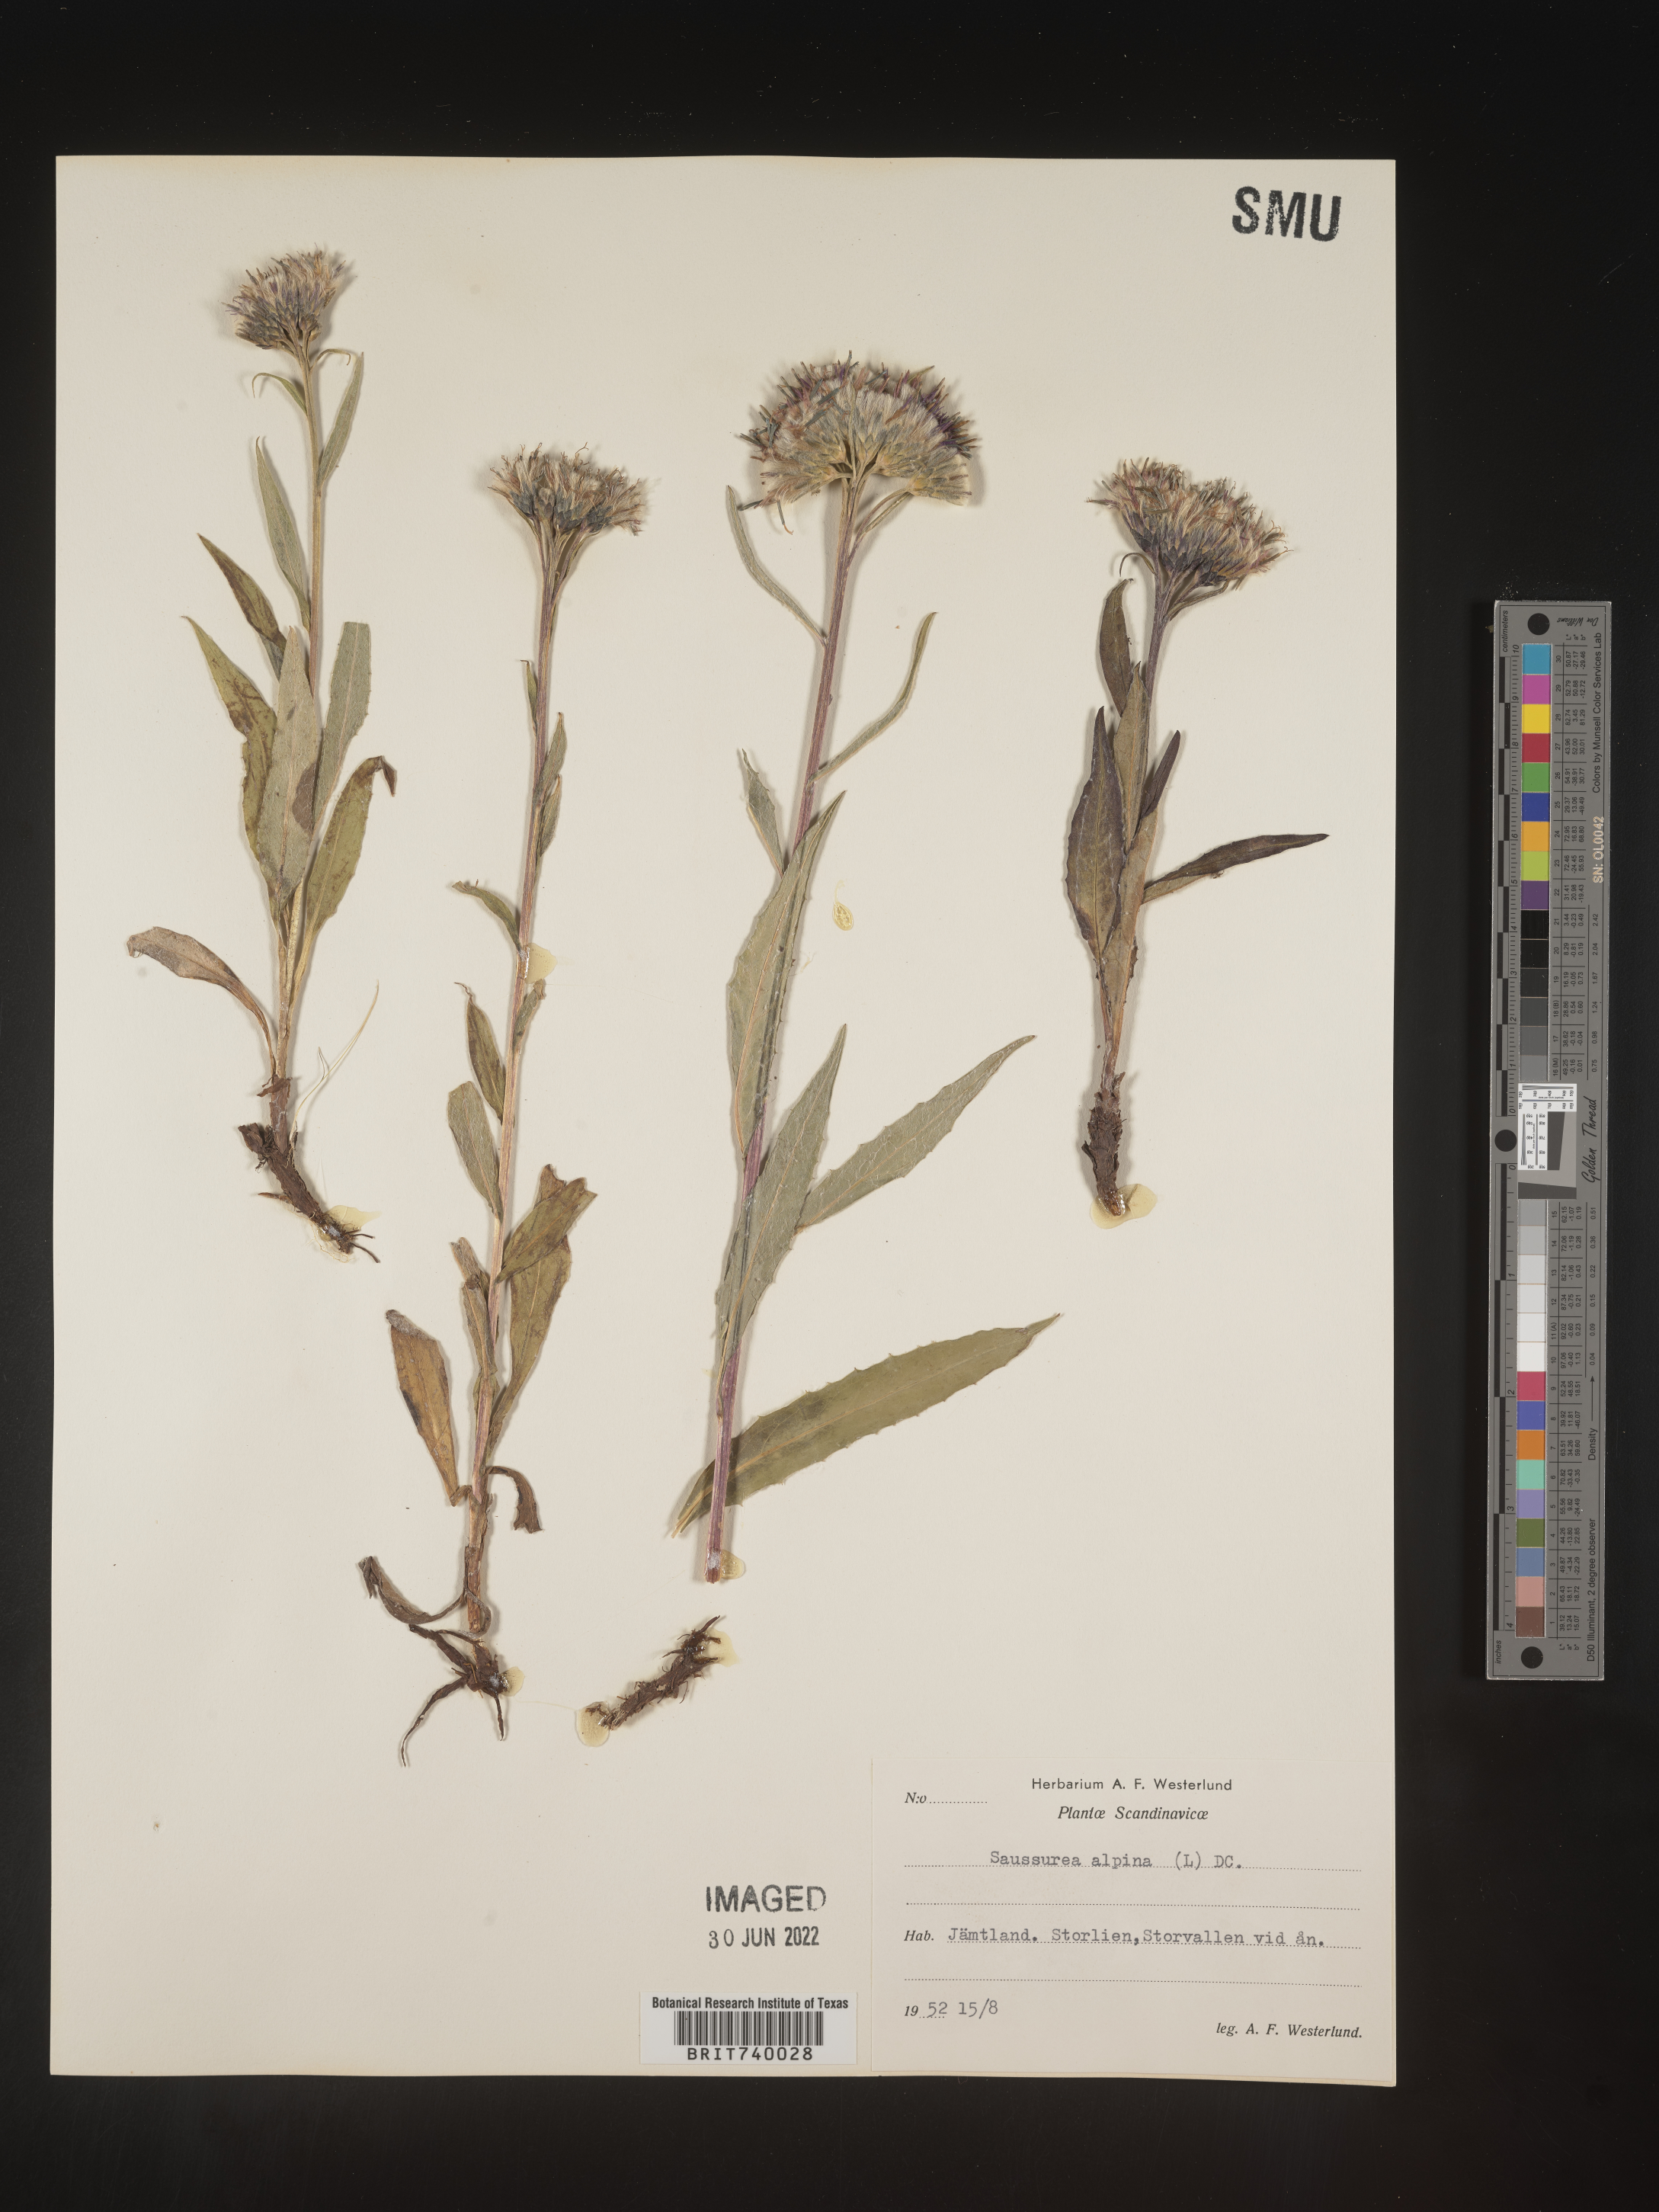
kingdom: Plantae
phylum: Tracheophyta
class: Magnoliopsida
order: Asterales
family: Asteraceae
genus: Saussurea
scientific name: Saussurea
